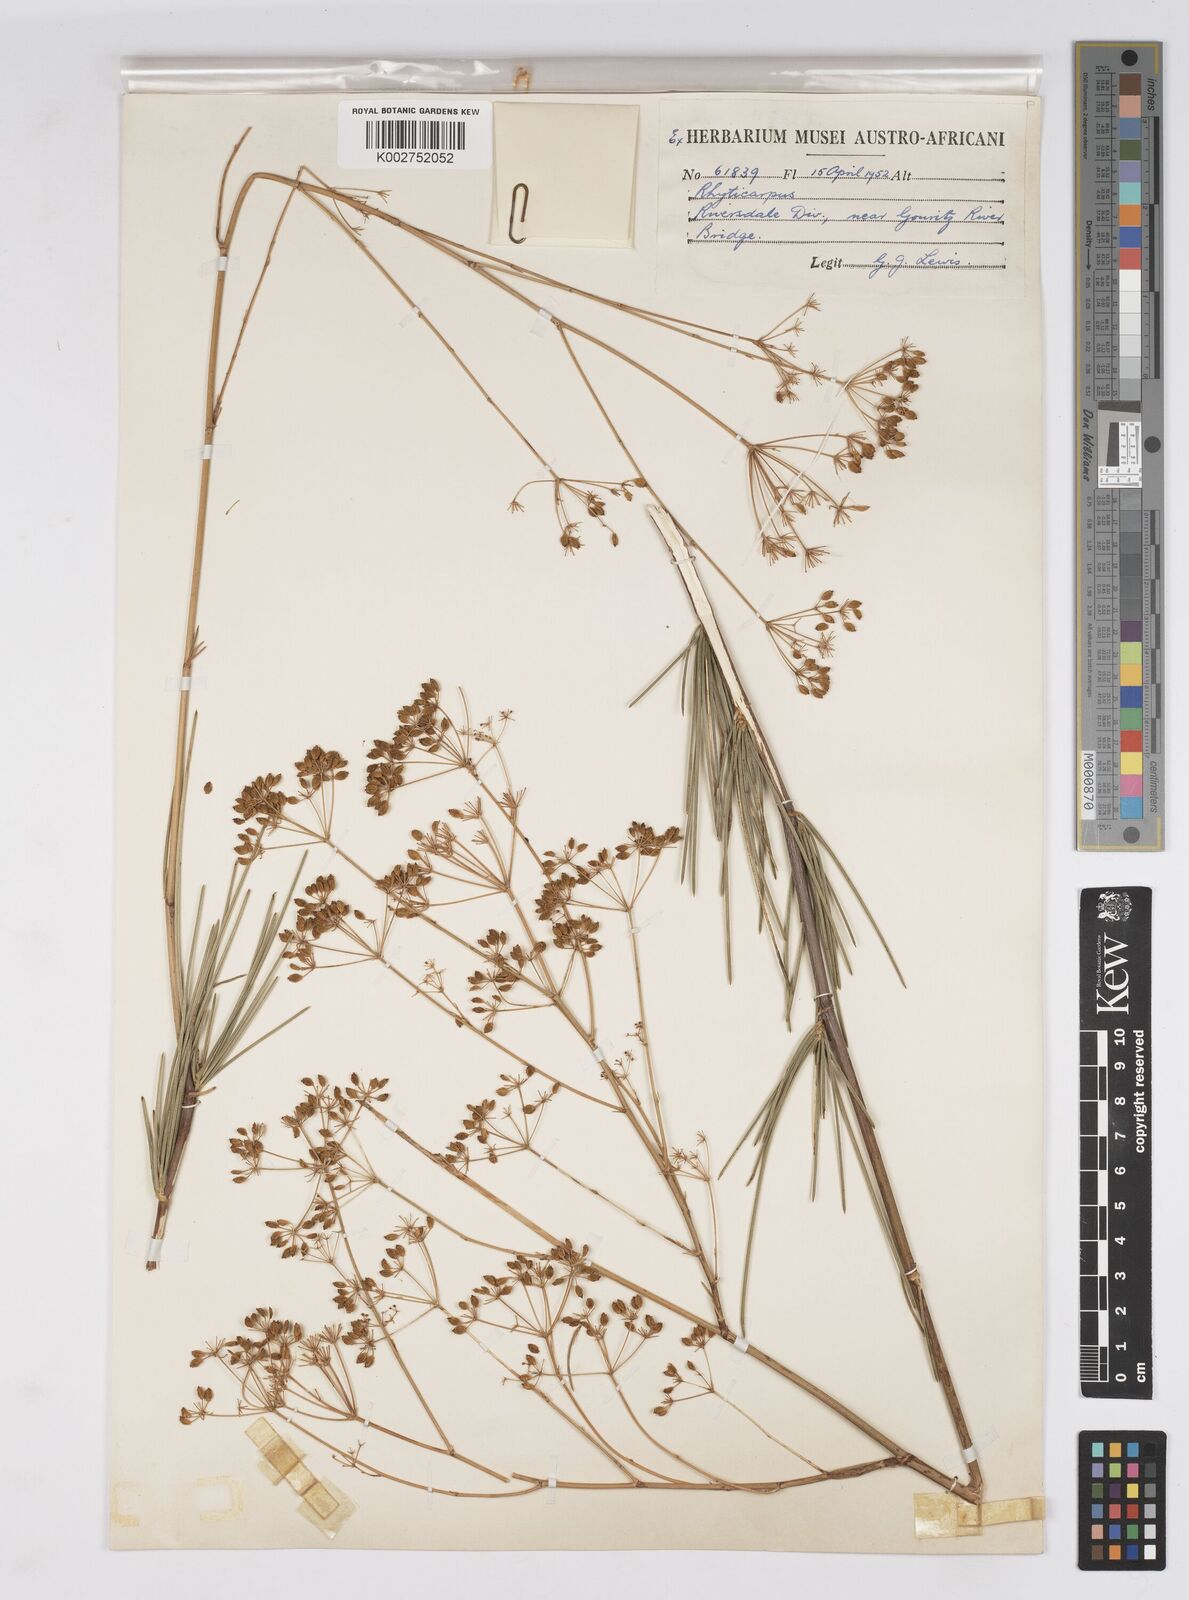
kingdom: Plantae
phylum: Tracheophyta
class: Magnoliopsida
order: Apiales
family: Apiaceae
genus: Anginon
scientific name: Anginon fruticosum
